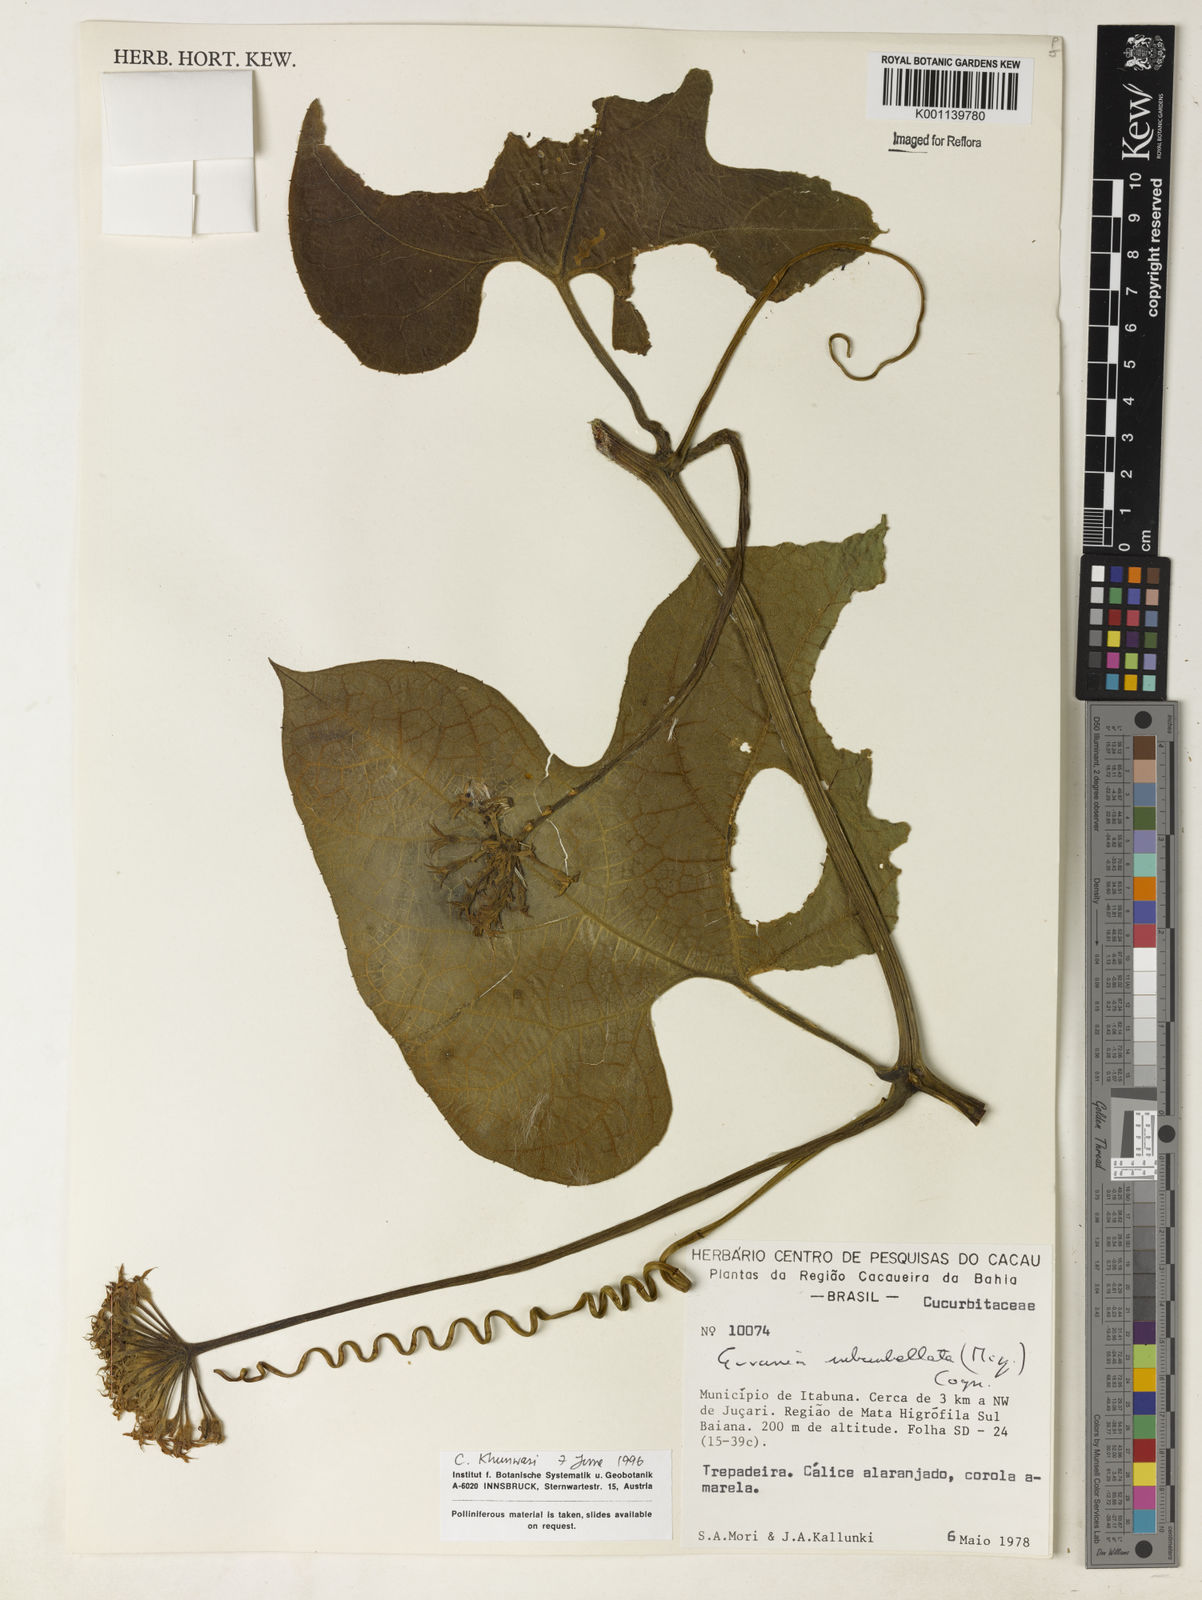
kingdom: Plantae
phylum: Tracheophyta
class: Magnoliopsida
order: Cucurbitales
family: Cucurbitaceae
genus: Gurania
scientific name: Gurania subumbellata
